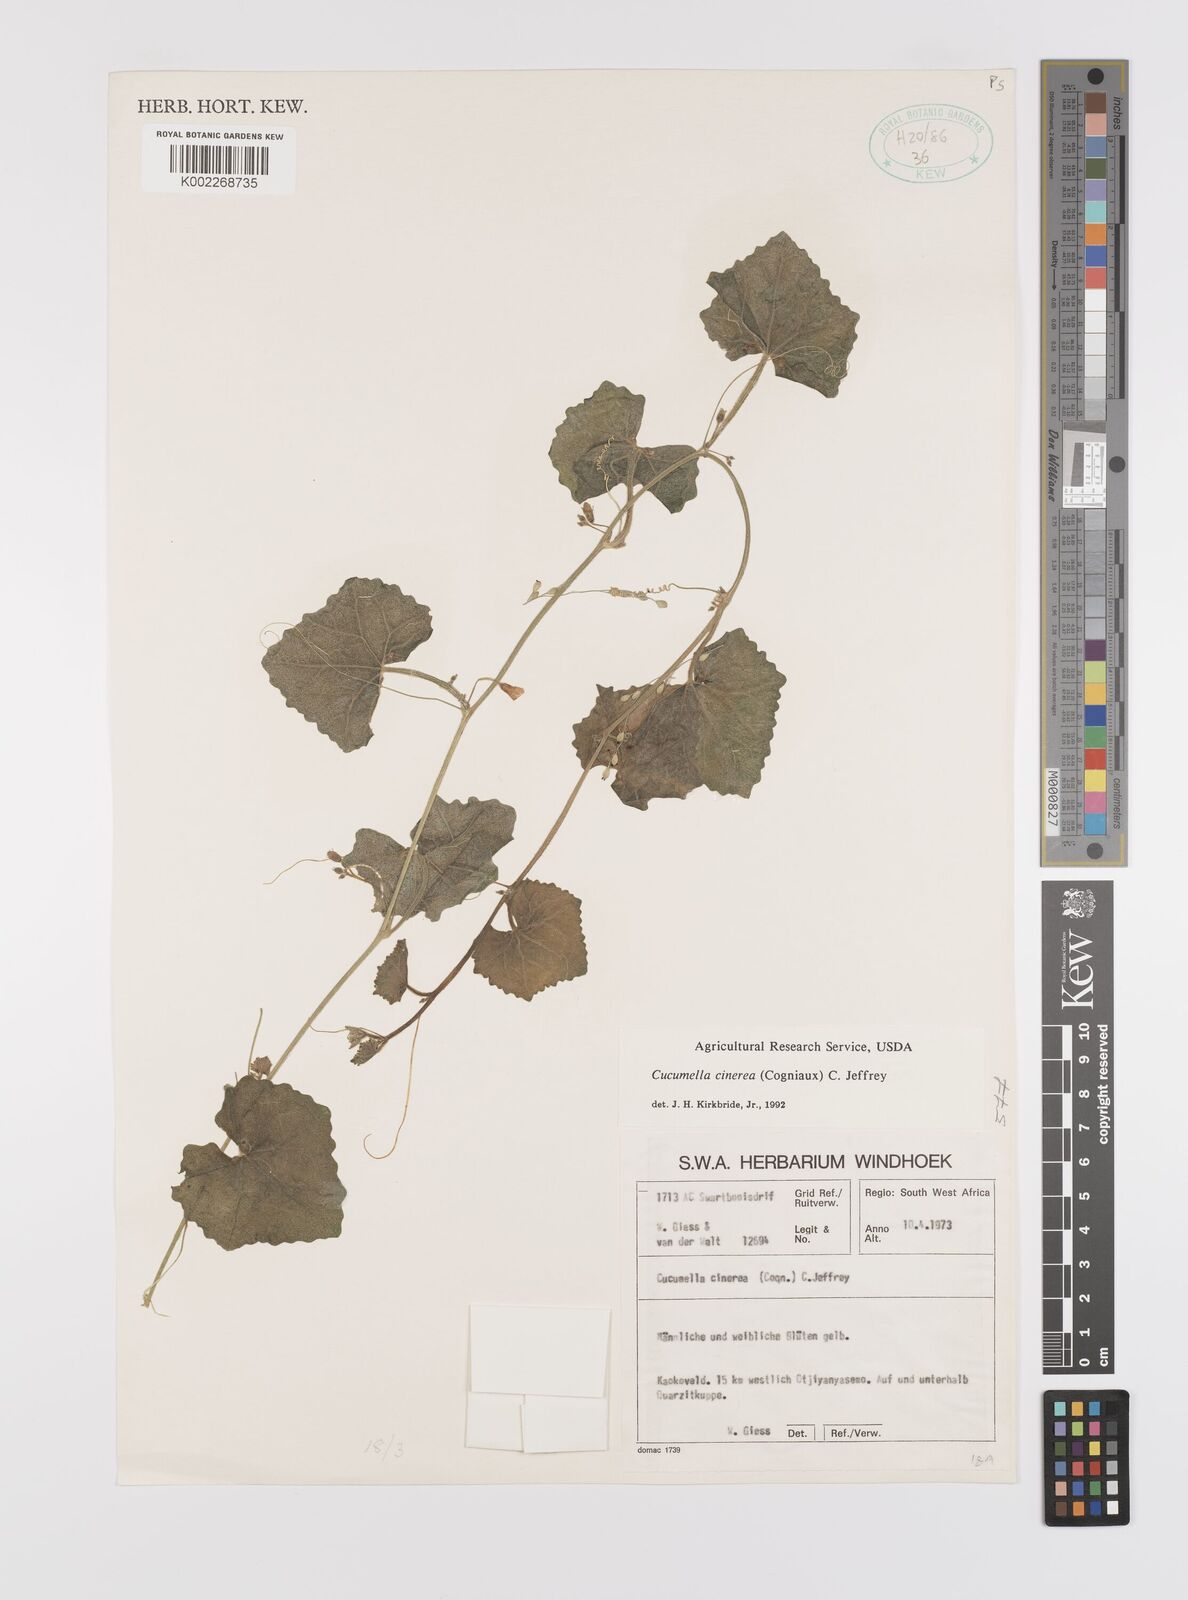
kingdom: Plantae
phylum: Tracheophyta
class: Magnoliopsida
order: Cucurbitales
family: Cucurbitaceae
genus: Cucumis
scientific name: Cucumis cinereus
